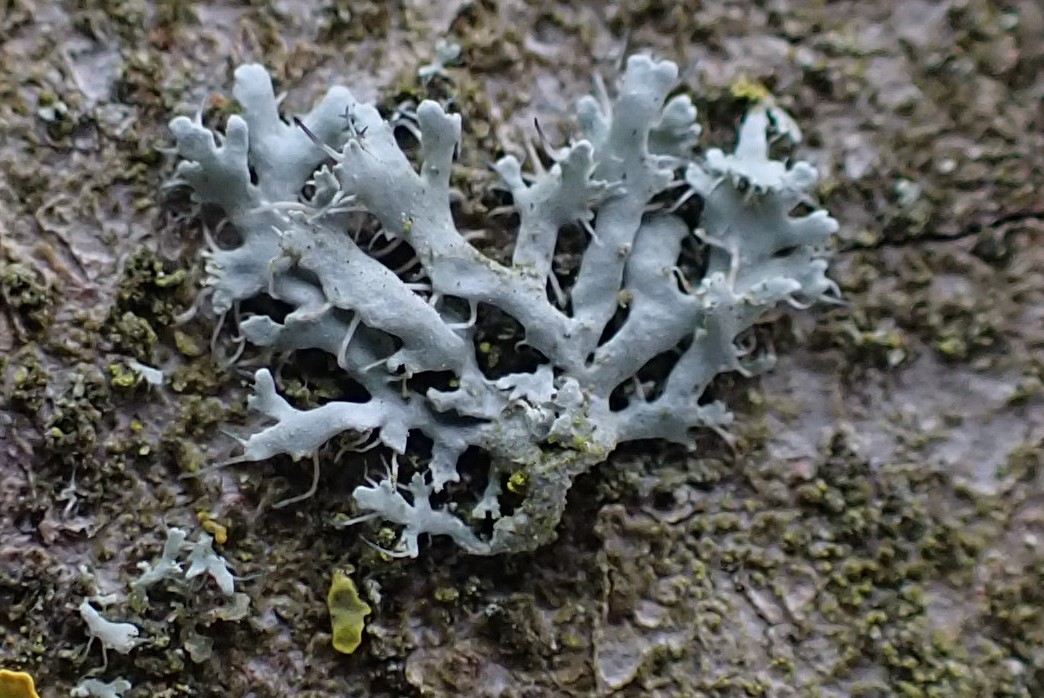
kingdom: Fungi
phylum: Ascomycota
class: Lecanoromycetes
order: Caliciales
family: Physciaceae
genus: Physcia
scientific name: Physcia tenella
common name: spæd rosetlav
